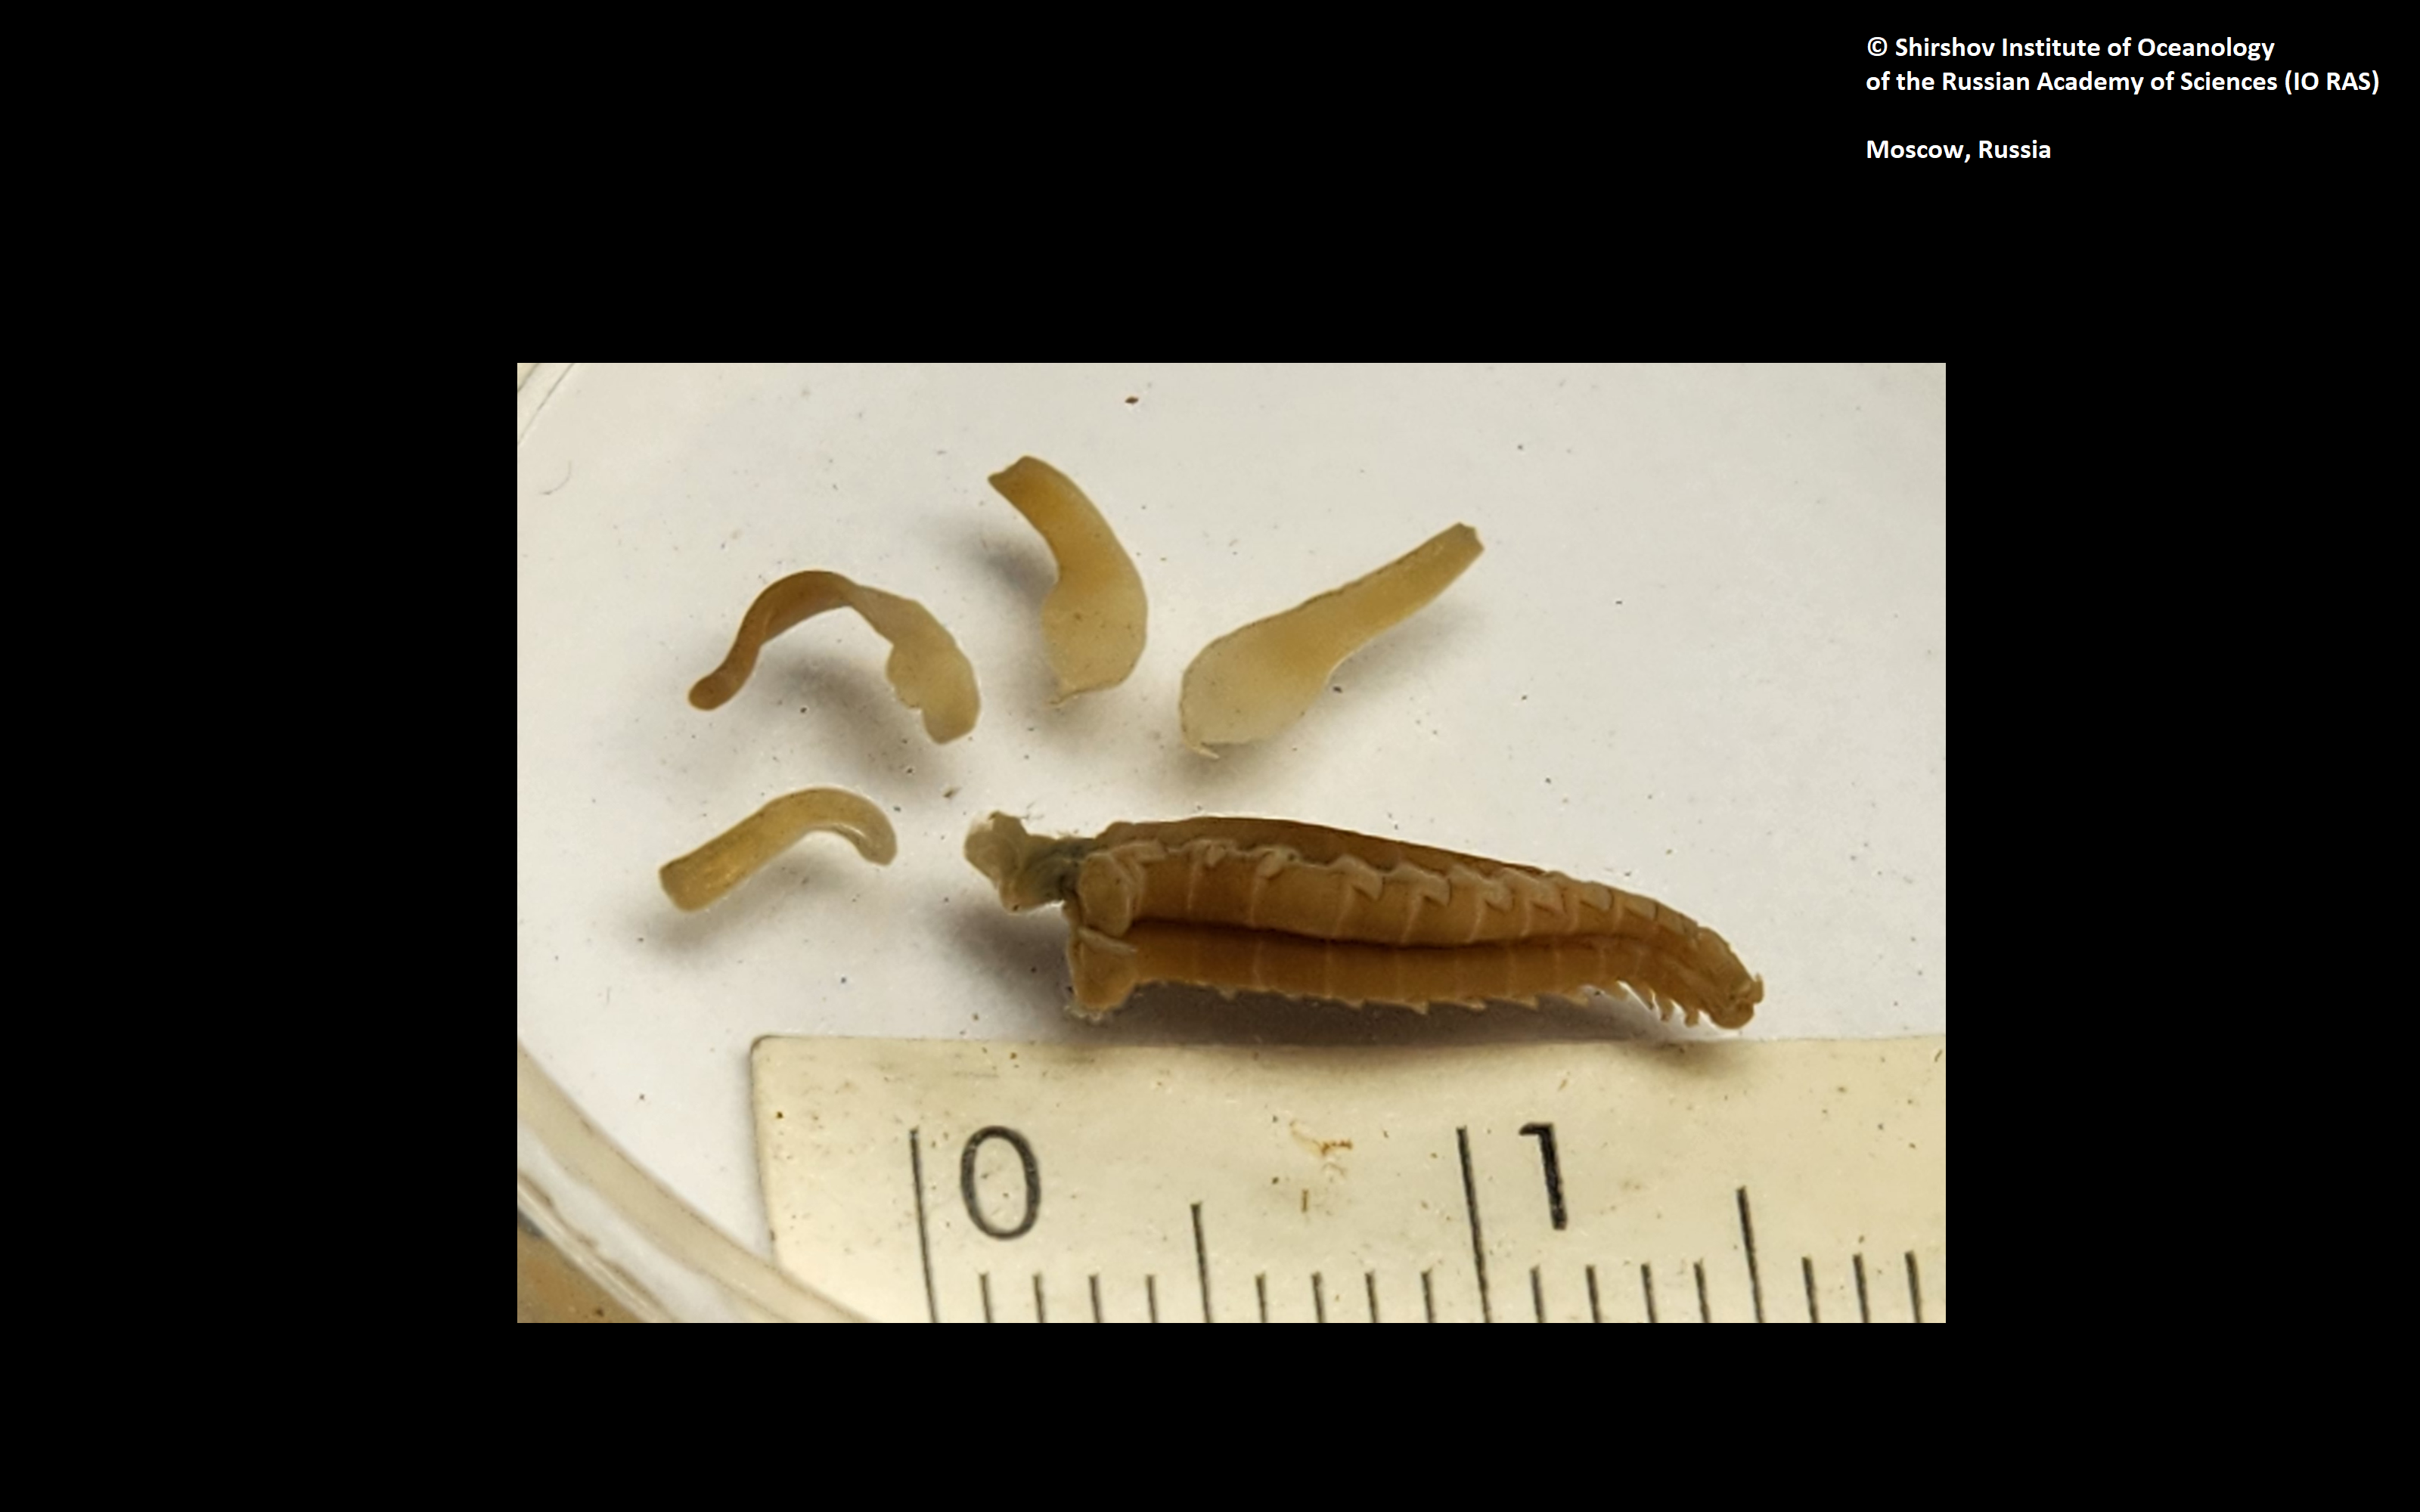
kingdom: Animalia
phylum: Annelida
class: Polychaeta
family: Ampharetidae
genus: Amphicteis
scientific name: Amphicteis nikiti
